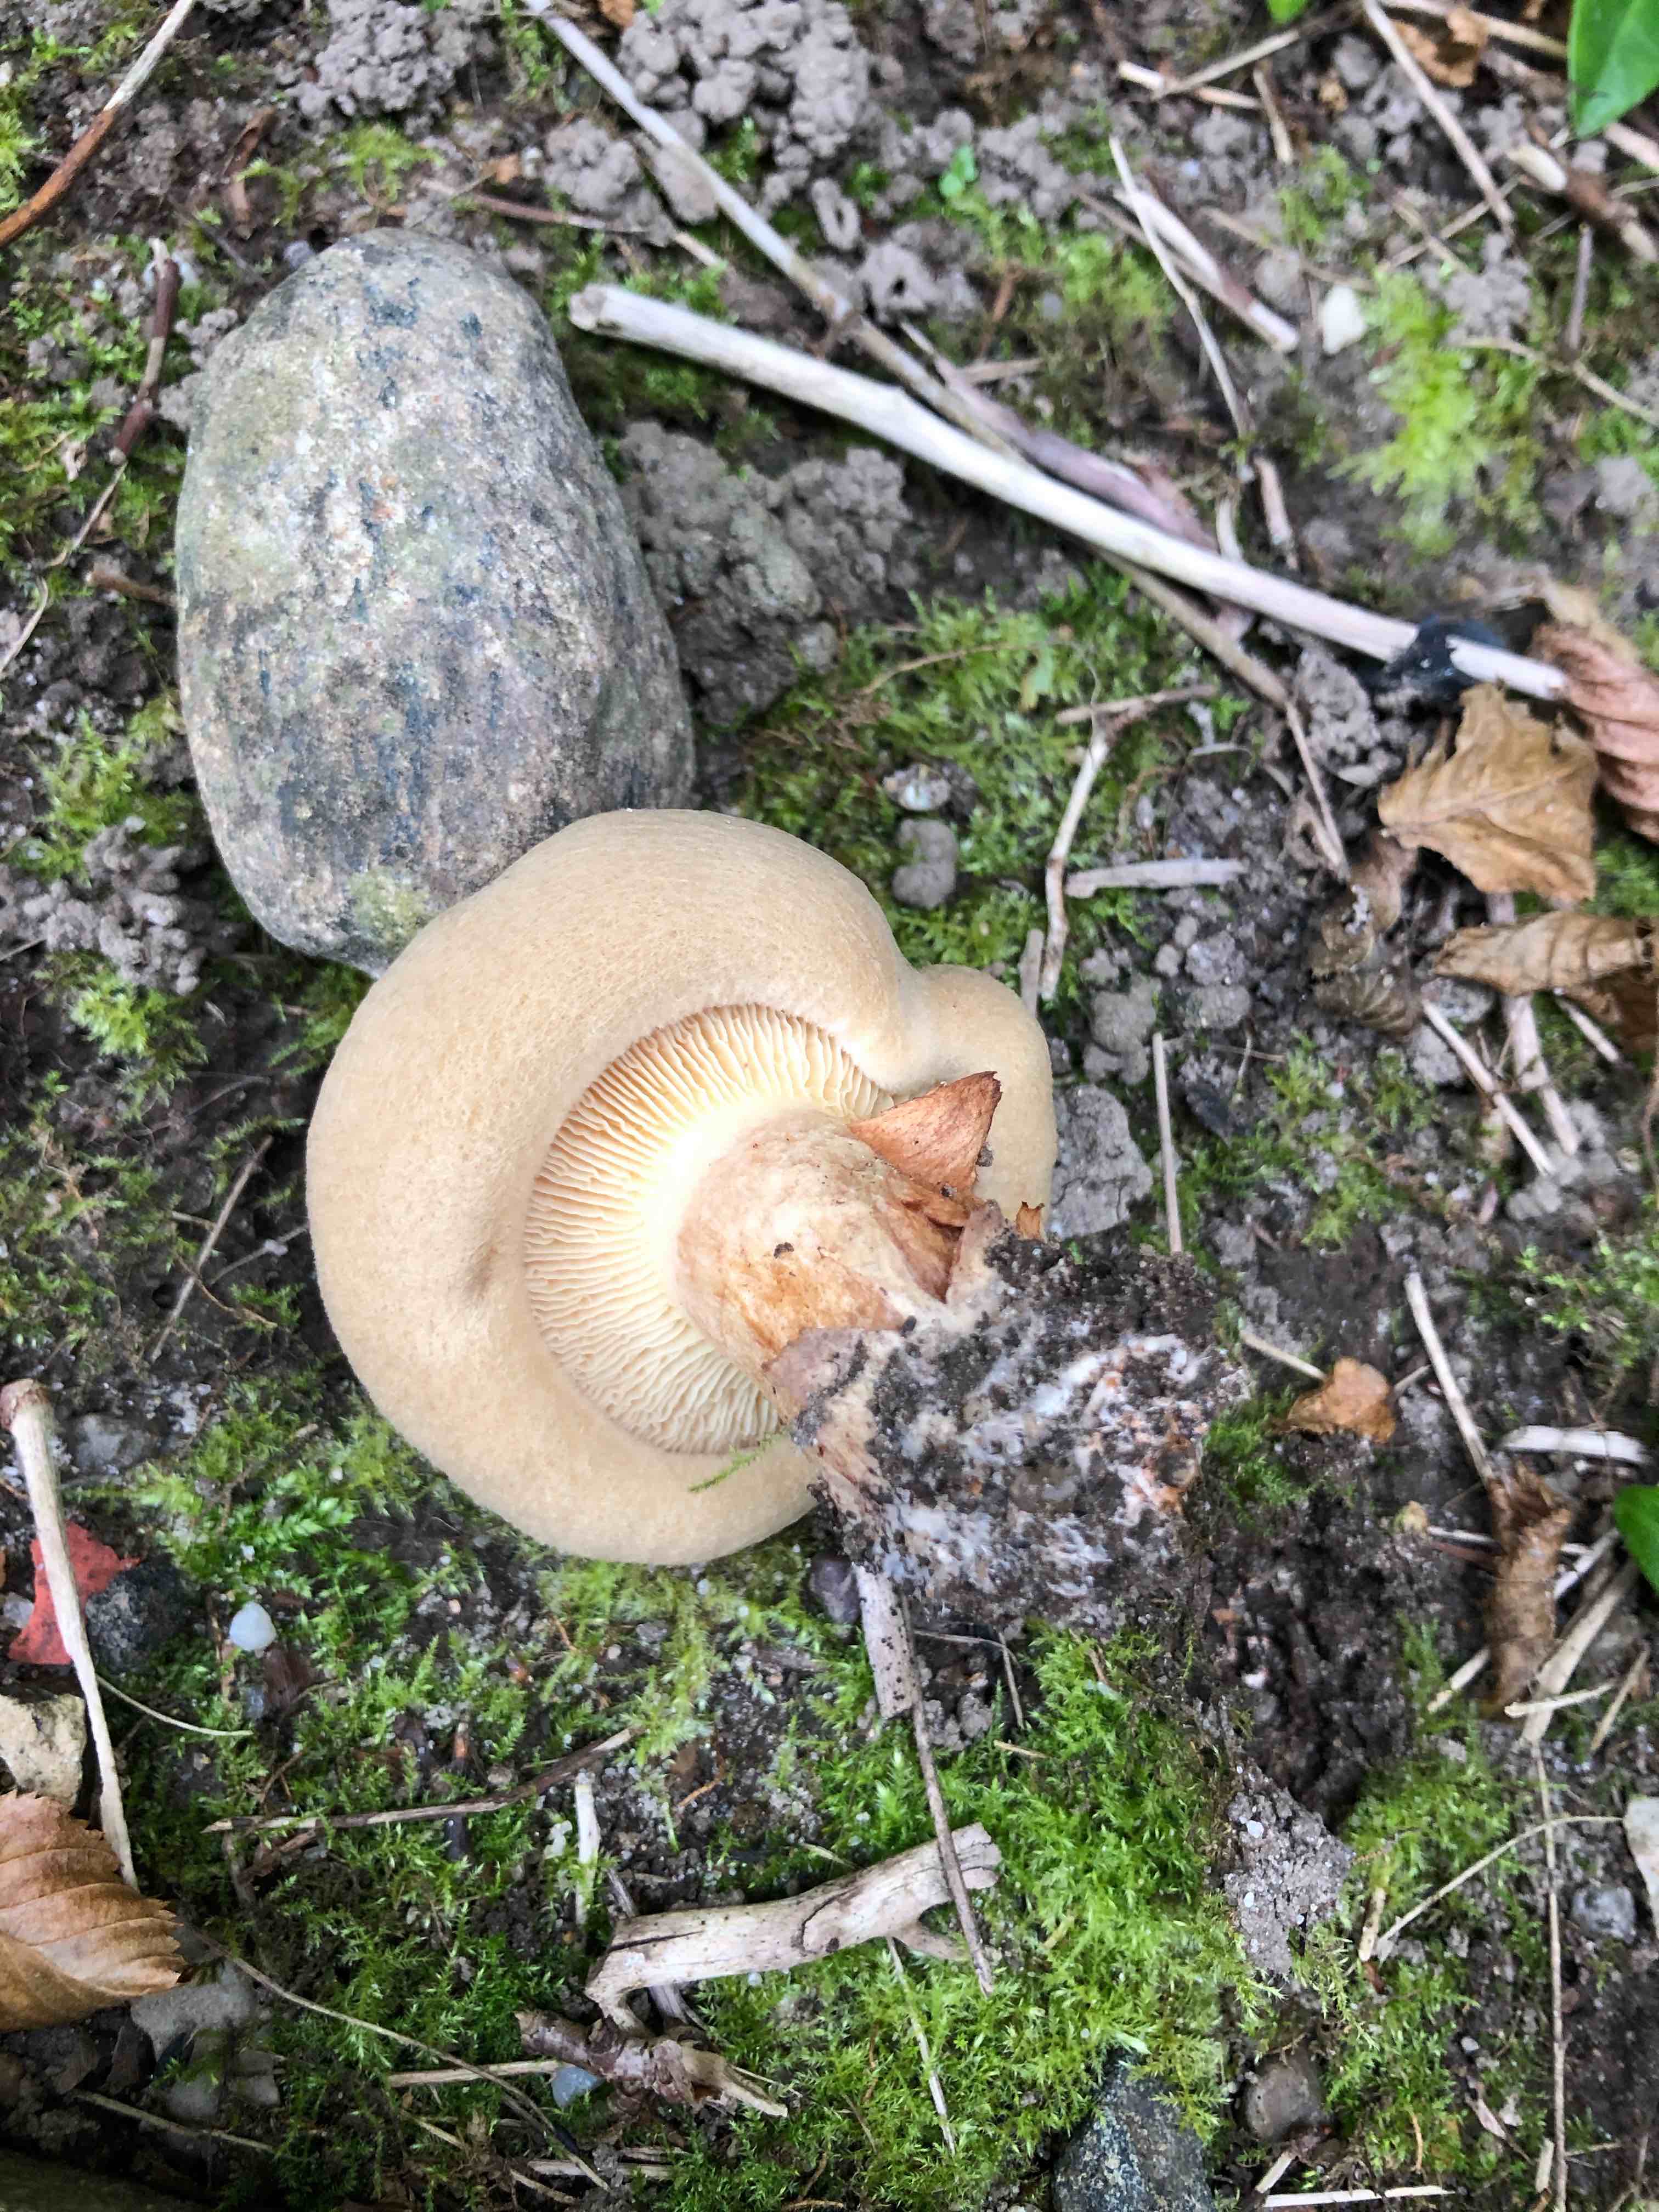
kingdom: Fungi
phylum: Basidiomycota
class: Agaricomycetes
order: Boletales
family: Paxillaceae
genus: Paxillus
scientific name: Paxillus
